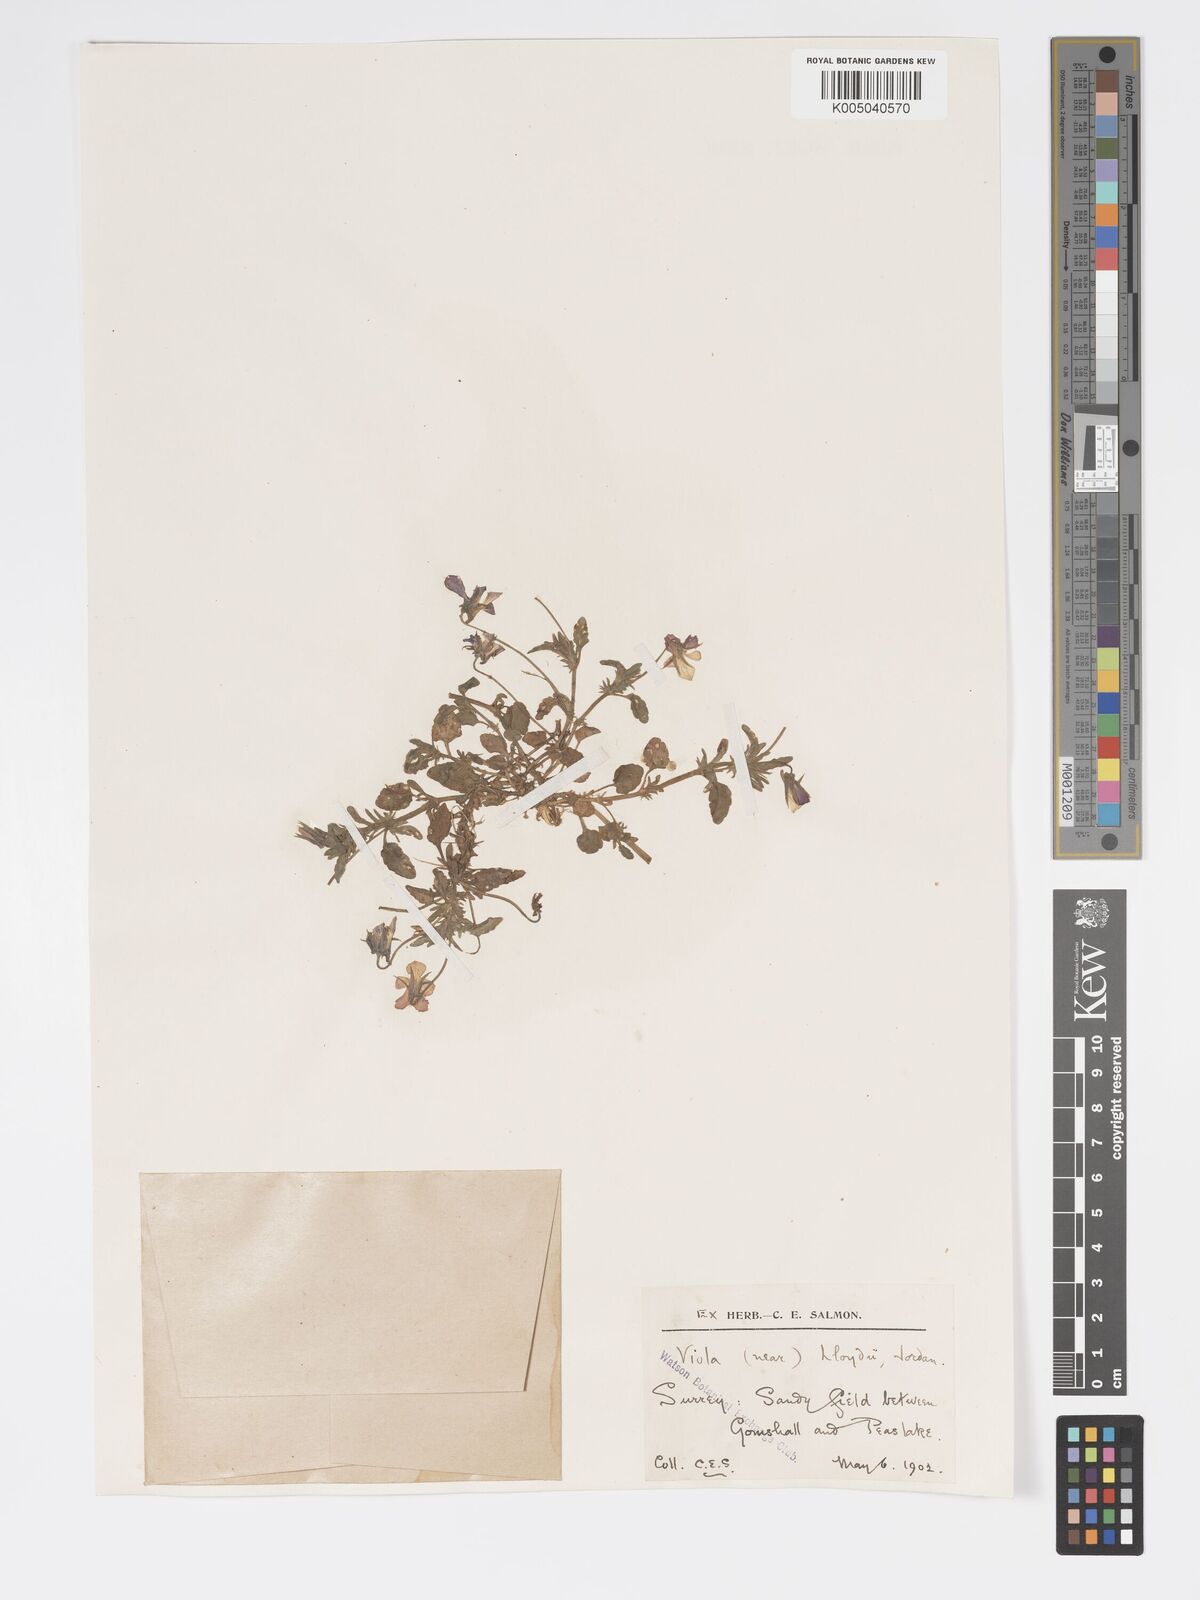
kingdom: Plantae
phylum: Tracheophyta
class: Magnoliopsida
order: Malpighiales
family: Violaceae
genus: Viola
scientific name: Viola arvensis
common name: Field pansy
